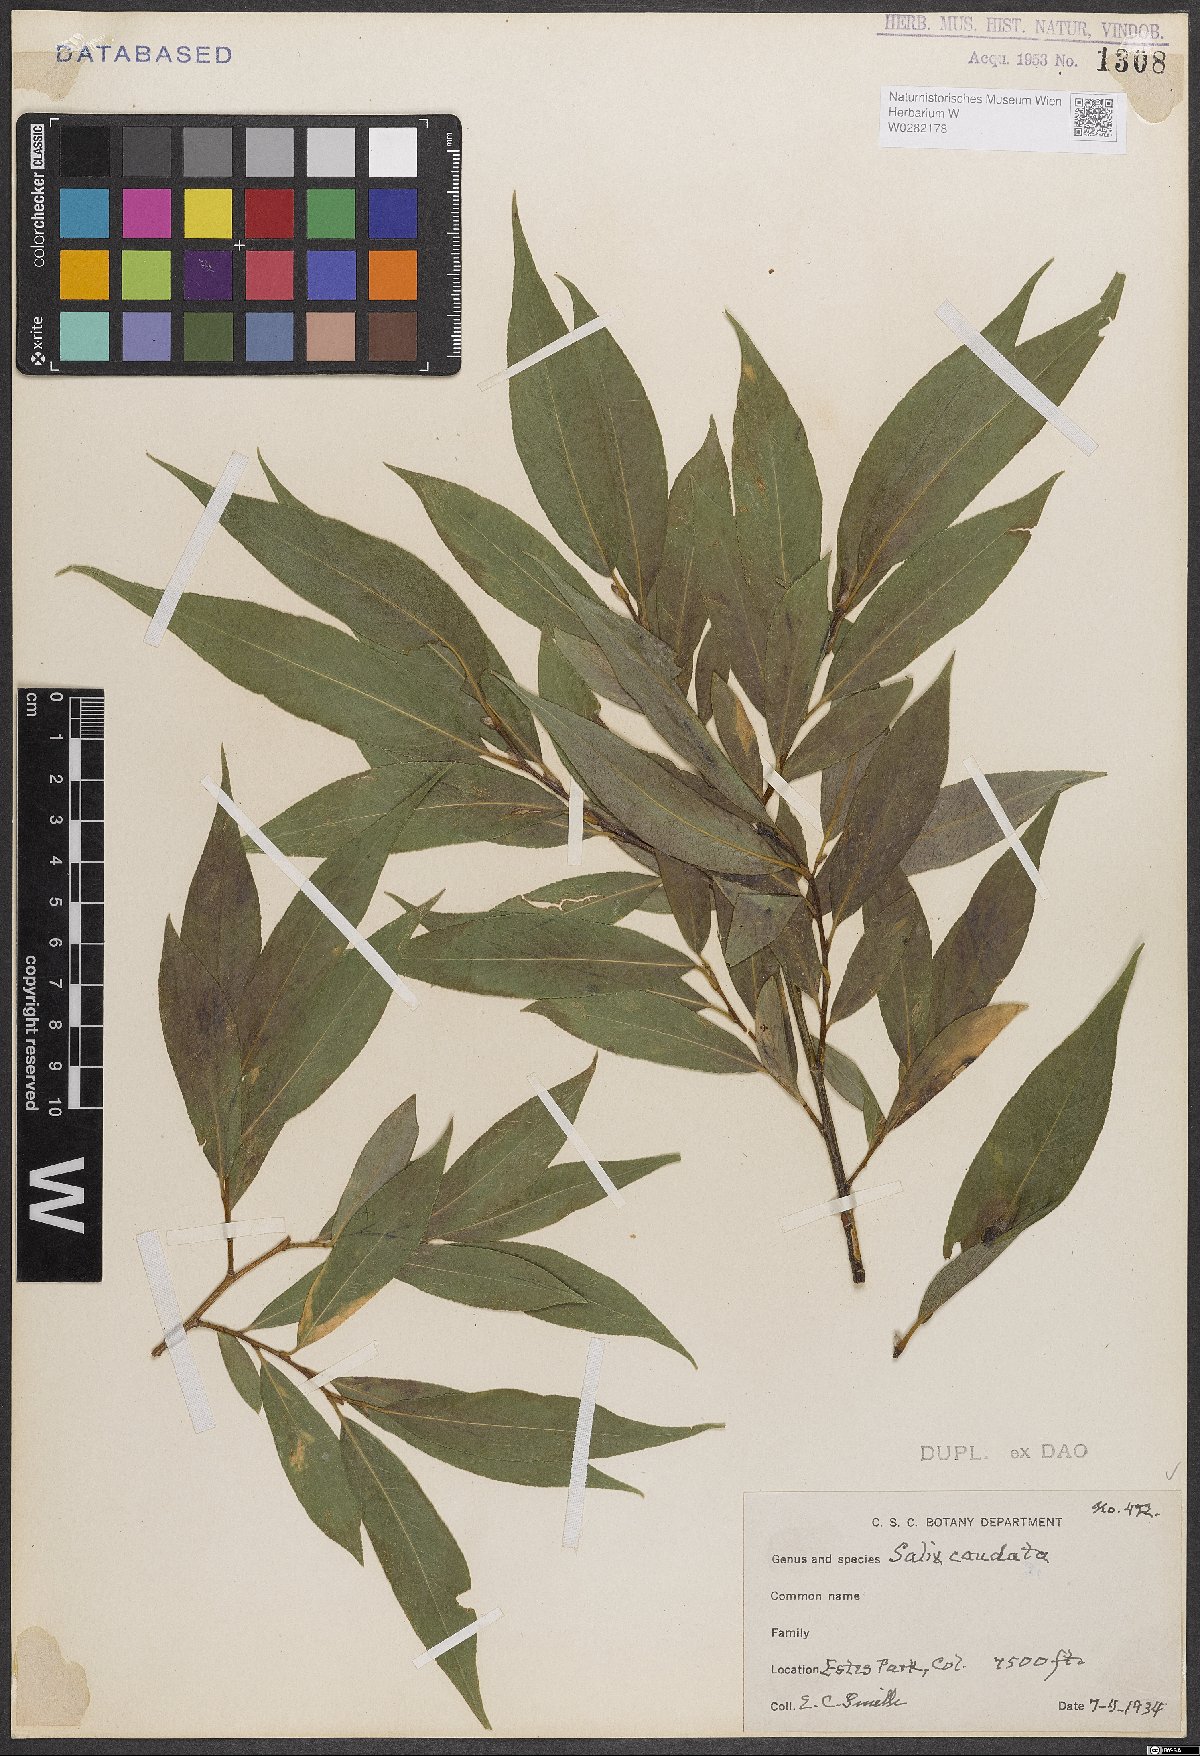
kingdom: Plantae
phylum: Tracheophyta
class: Magnoliopsida
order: Malpighiales
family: Salicaceae
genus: Salix
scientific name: Salix lucida
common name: Shining willow
